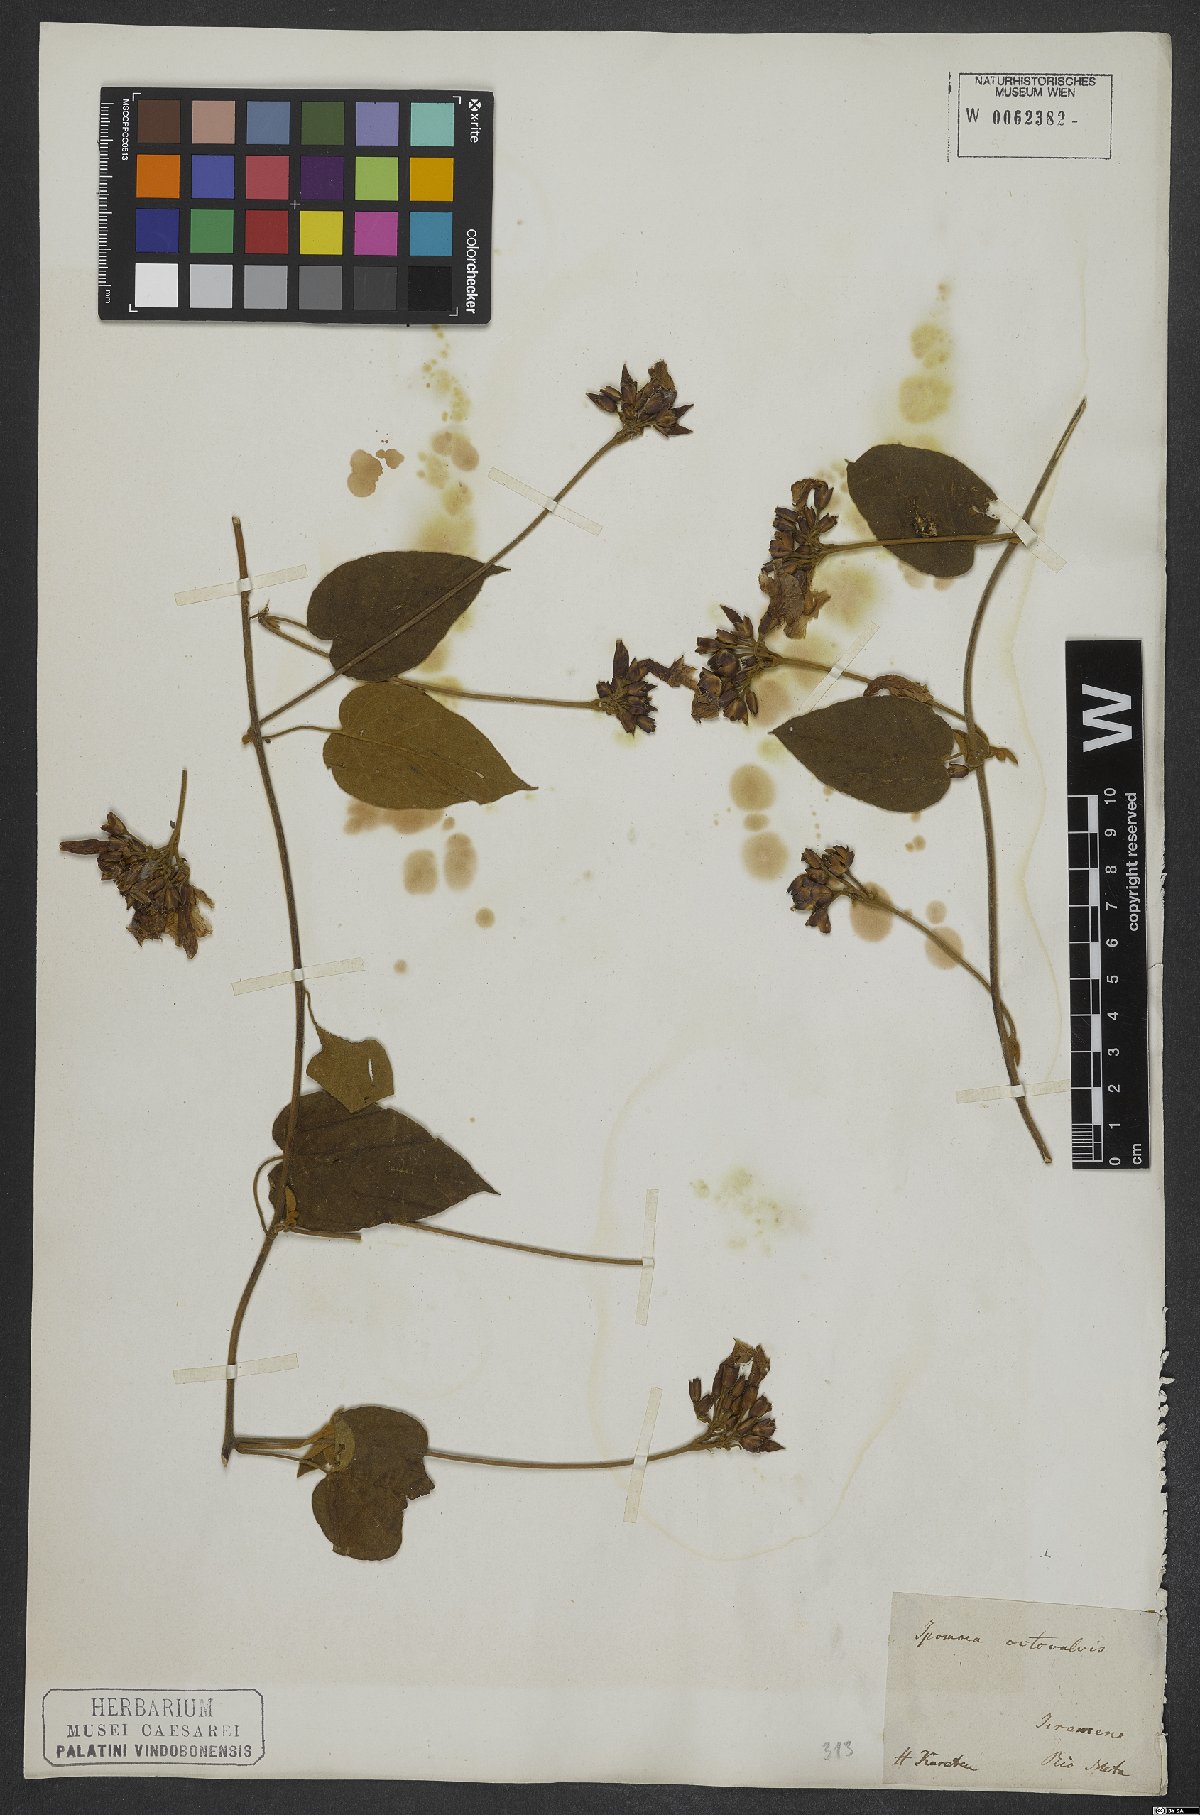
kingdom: Plantae
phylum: Tracheophyta
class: Magnoliopsida
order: Solanales
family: Convolvulaceae
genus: Jacquemontia
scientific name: Jacquemontia holosericea
